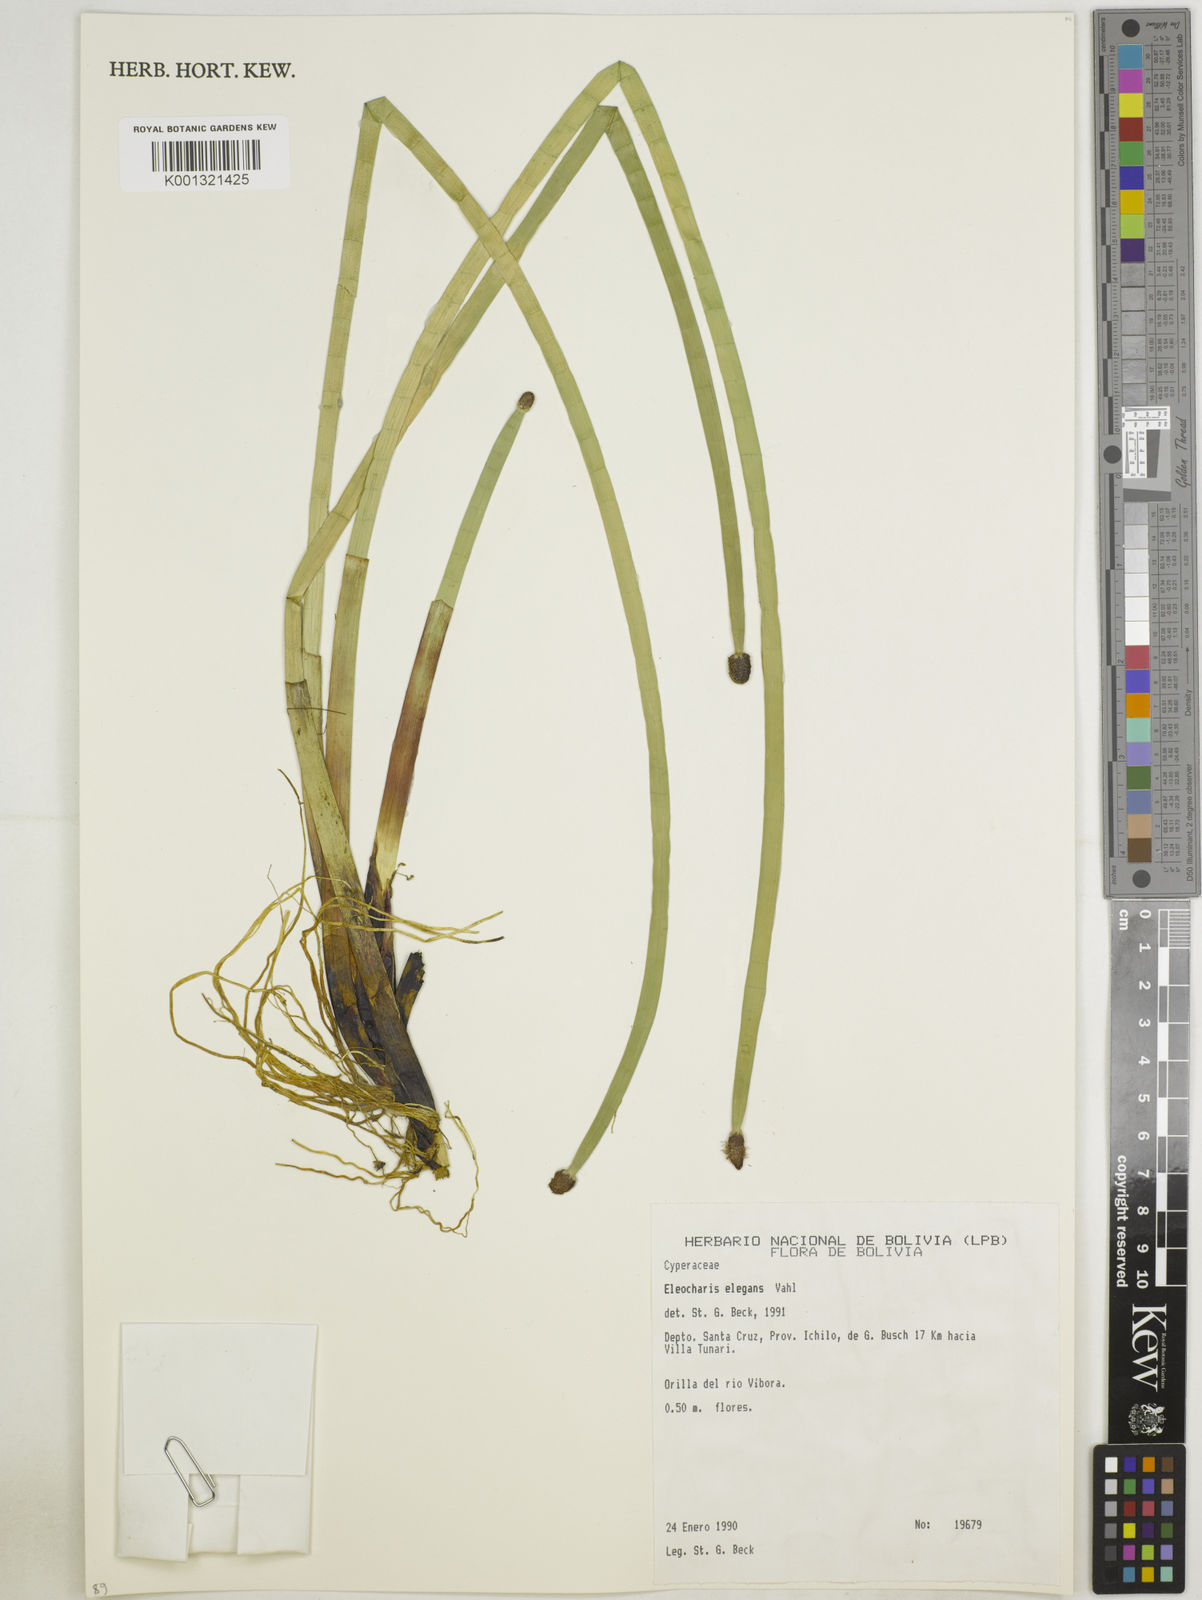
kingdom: Plantae
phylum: Tracheophyta
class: Liliopsida
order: Poales
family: Cyperaceae
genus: Eleocharis
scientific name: Eleocharis elegans
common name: Elegant spike-rush
